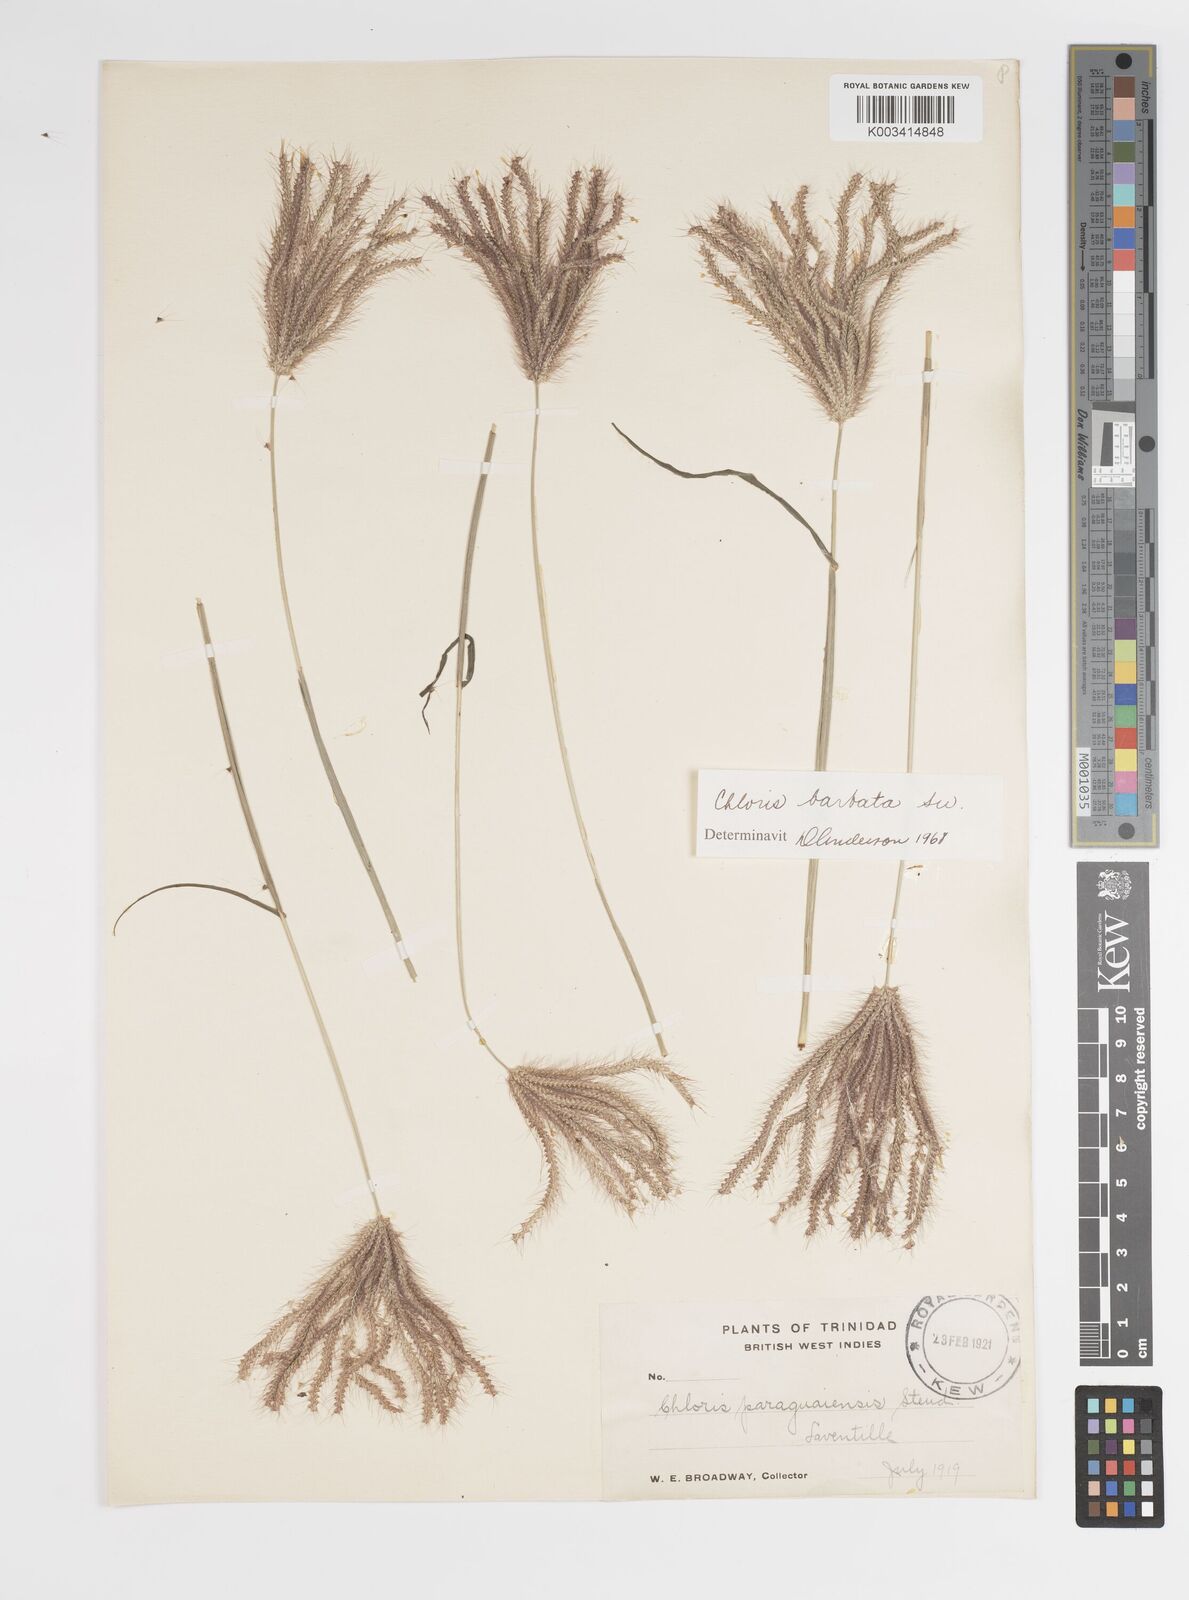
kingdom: Plantae
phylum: Tracheophyta
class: Liliopsida
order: Poales
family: Poaceae
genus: Chloris
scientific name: Chloris barbata
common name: Swollen fingergrass
